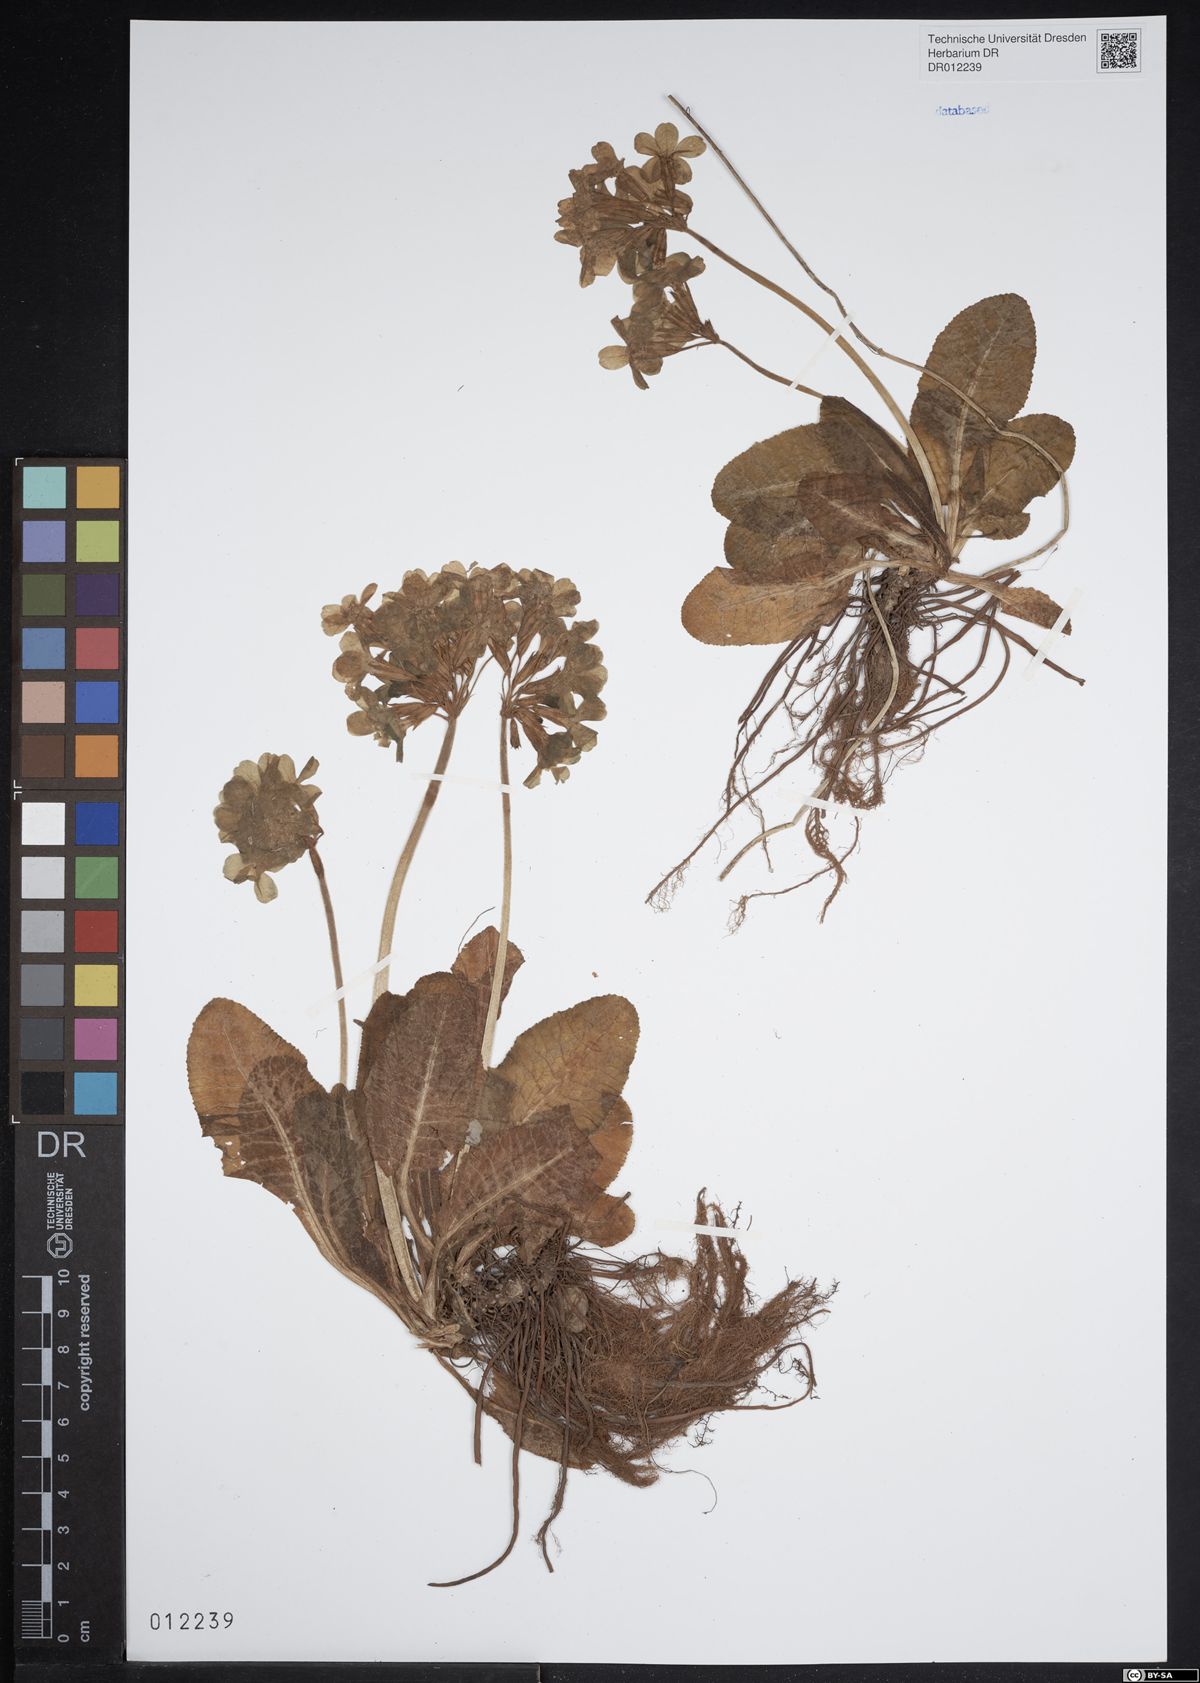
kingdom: Plantae
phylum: Tracheophyta
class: Magnoliopsida
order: Ericales
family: Primulaceae
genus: Primula
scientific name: Primula elatior
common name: Oxlip
